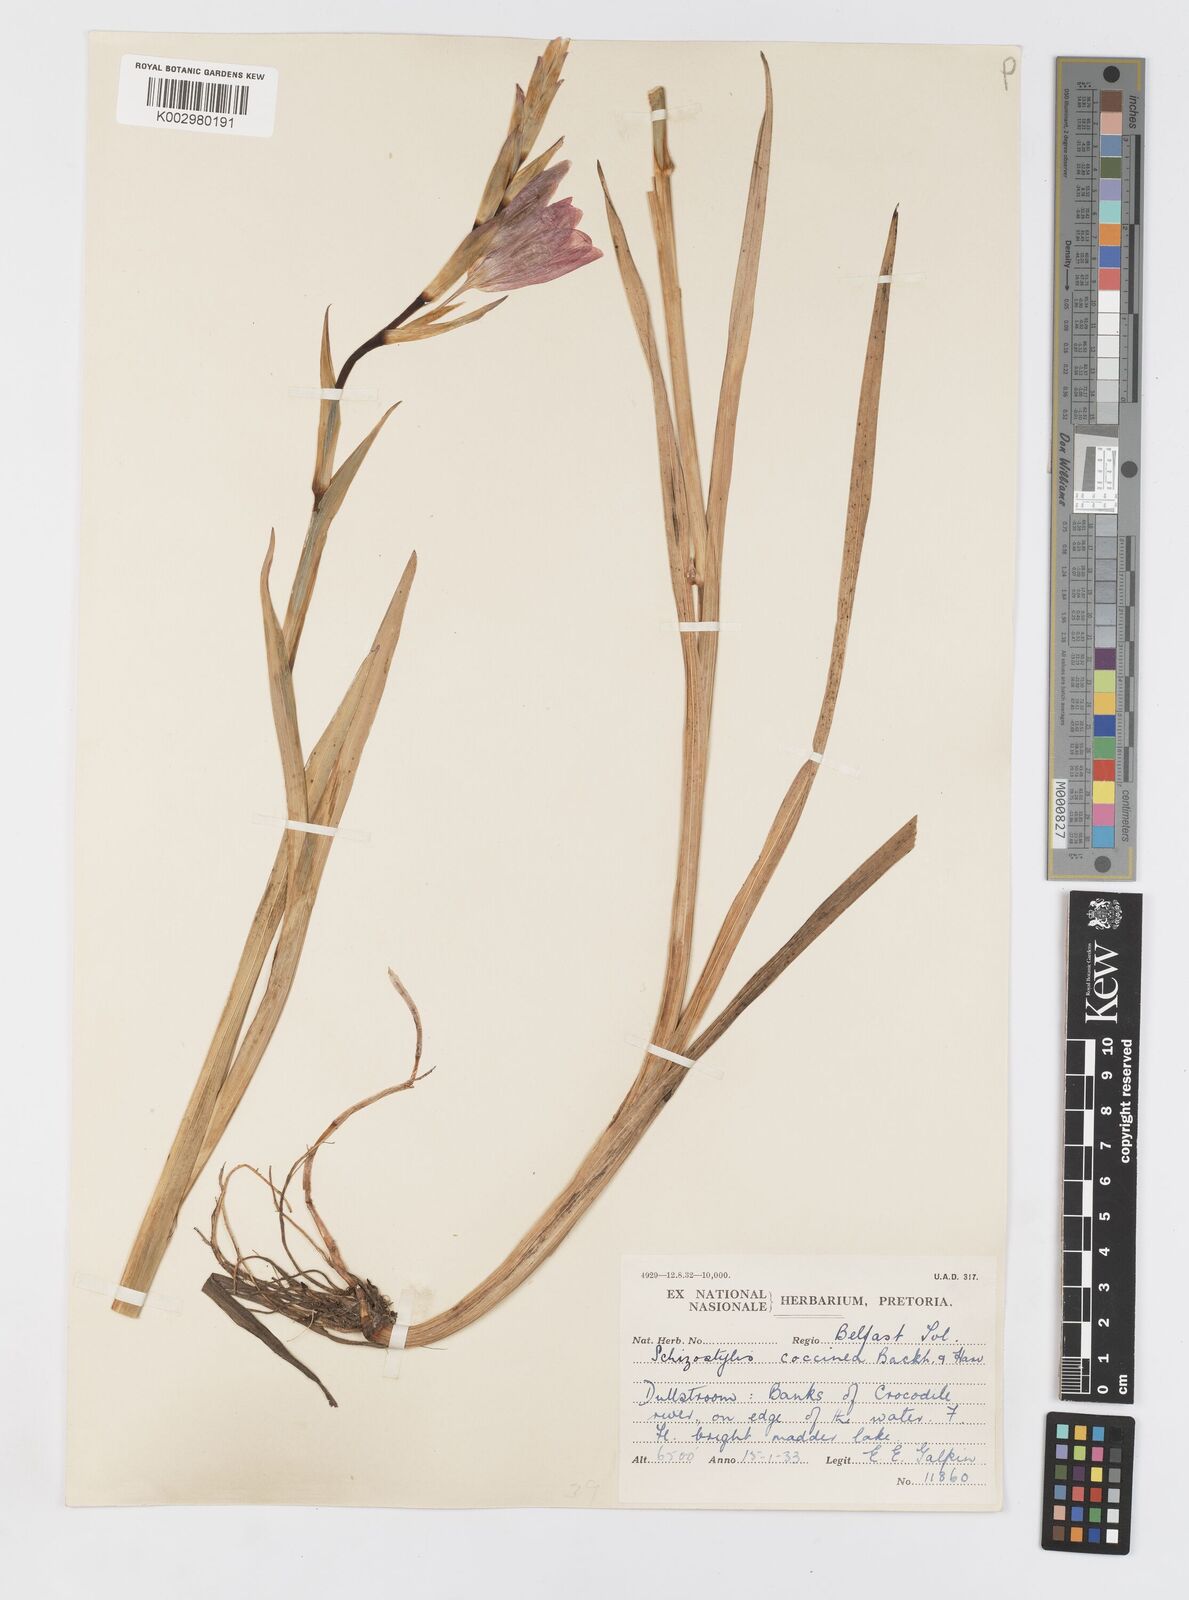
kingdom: Plantae
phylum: Tracheophyta
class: Liliopsida
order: Asparagales
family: Iridaceae
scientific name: Iridaceae
